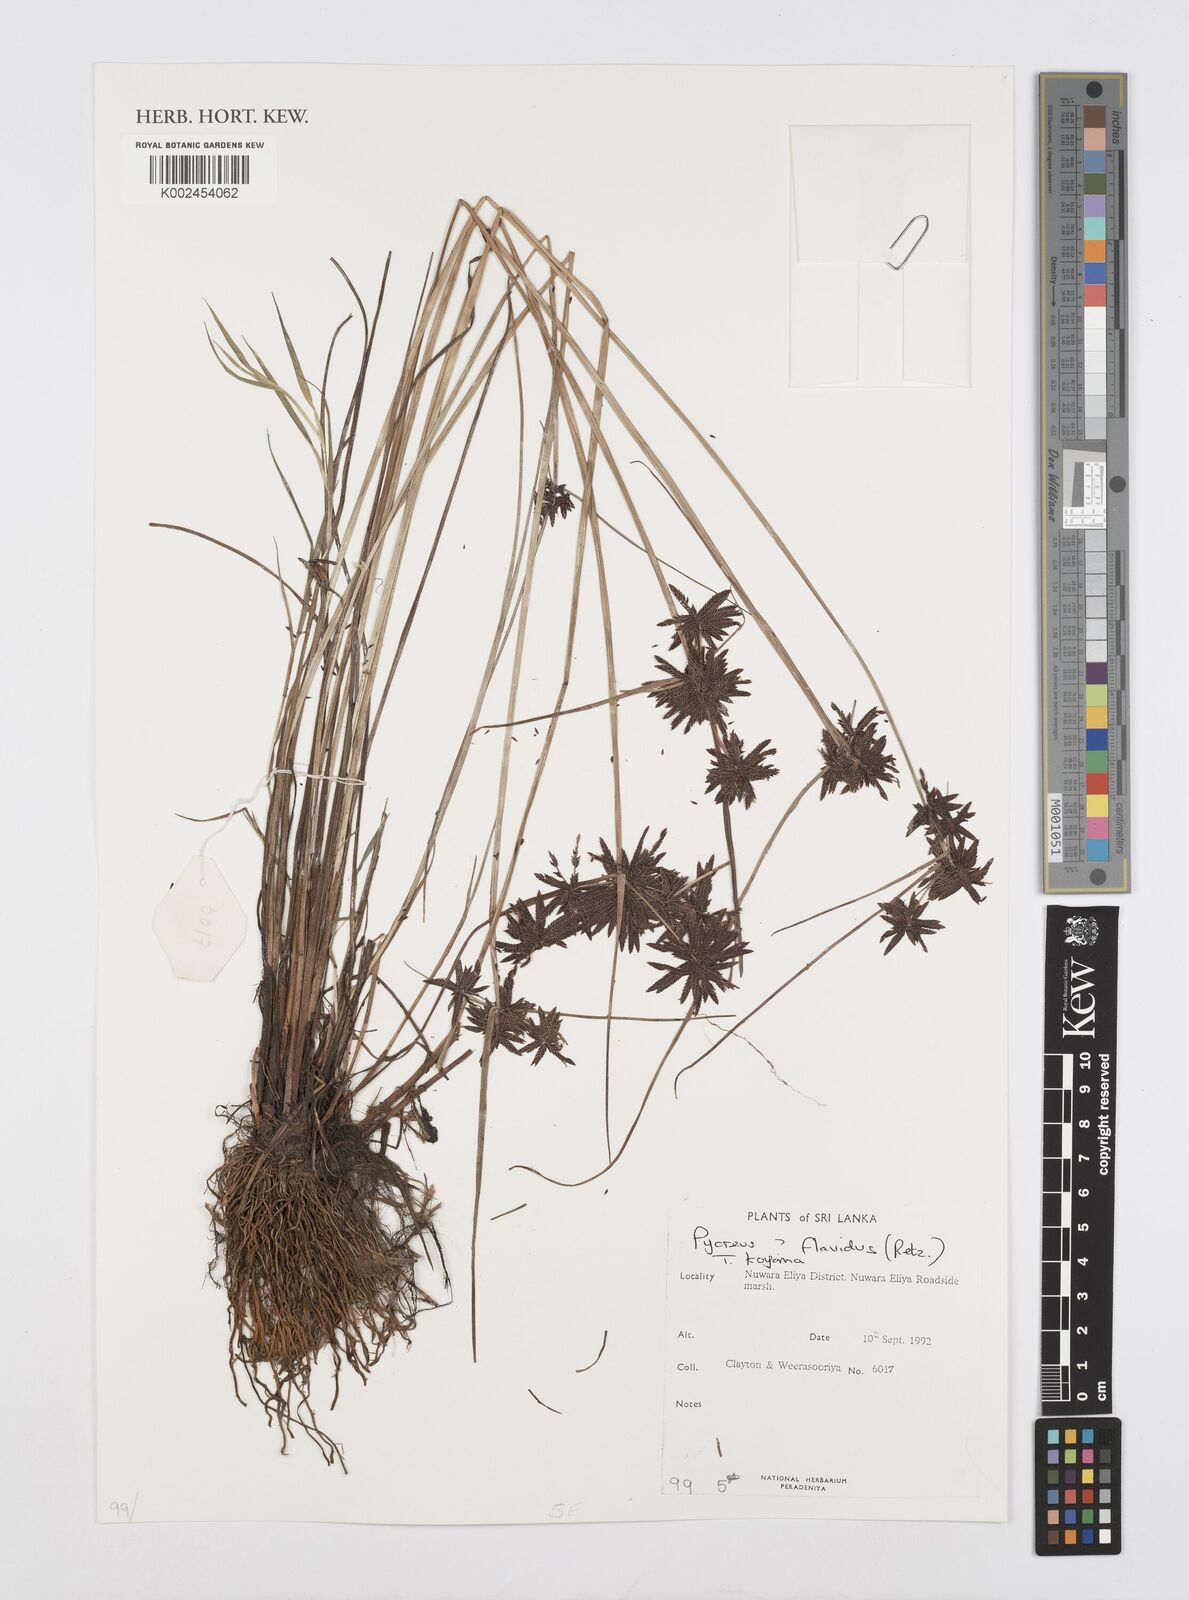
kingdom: Plantae
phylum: Tracheophyta
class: Liliopsida
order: Poales
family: Cyperaceae
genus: Cyperus
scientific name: Cyperus flavidus
